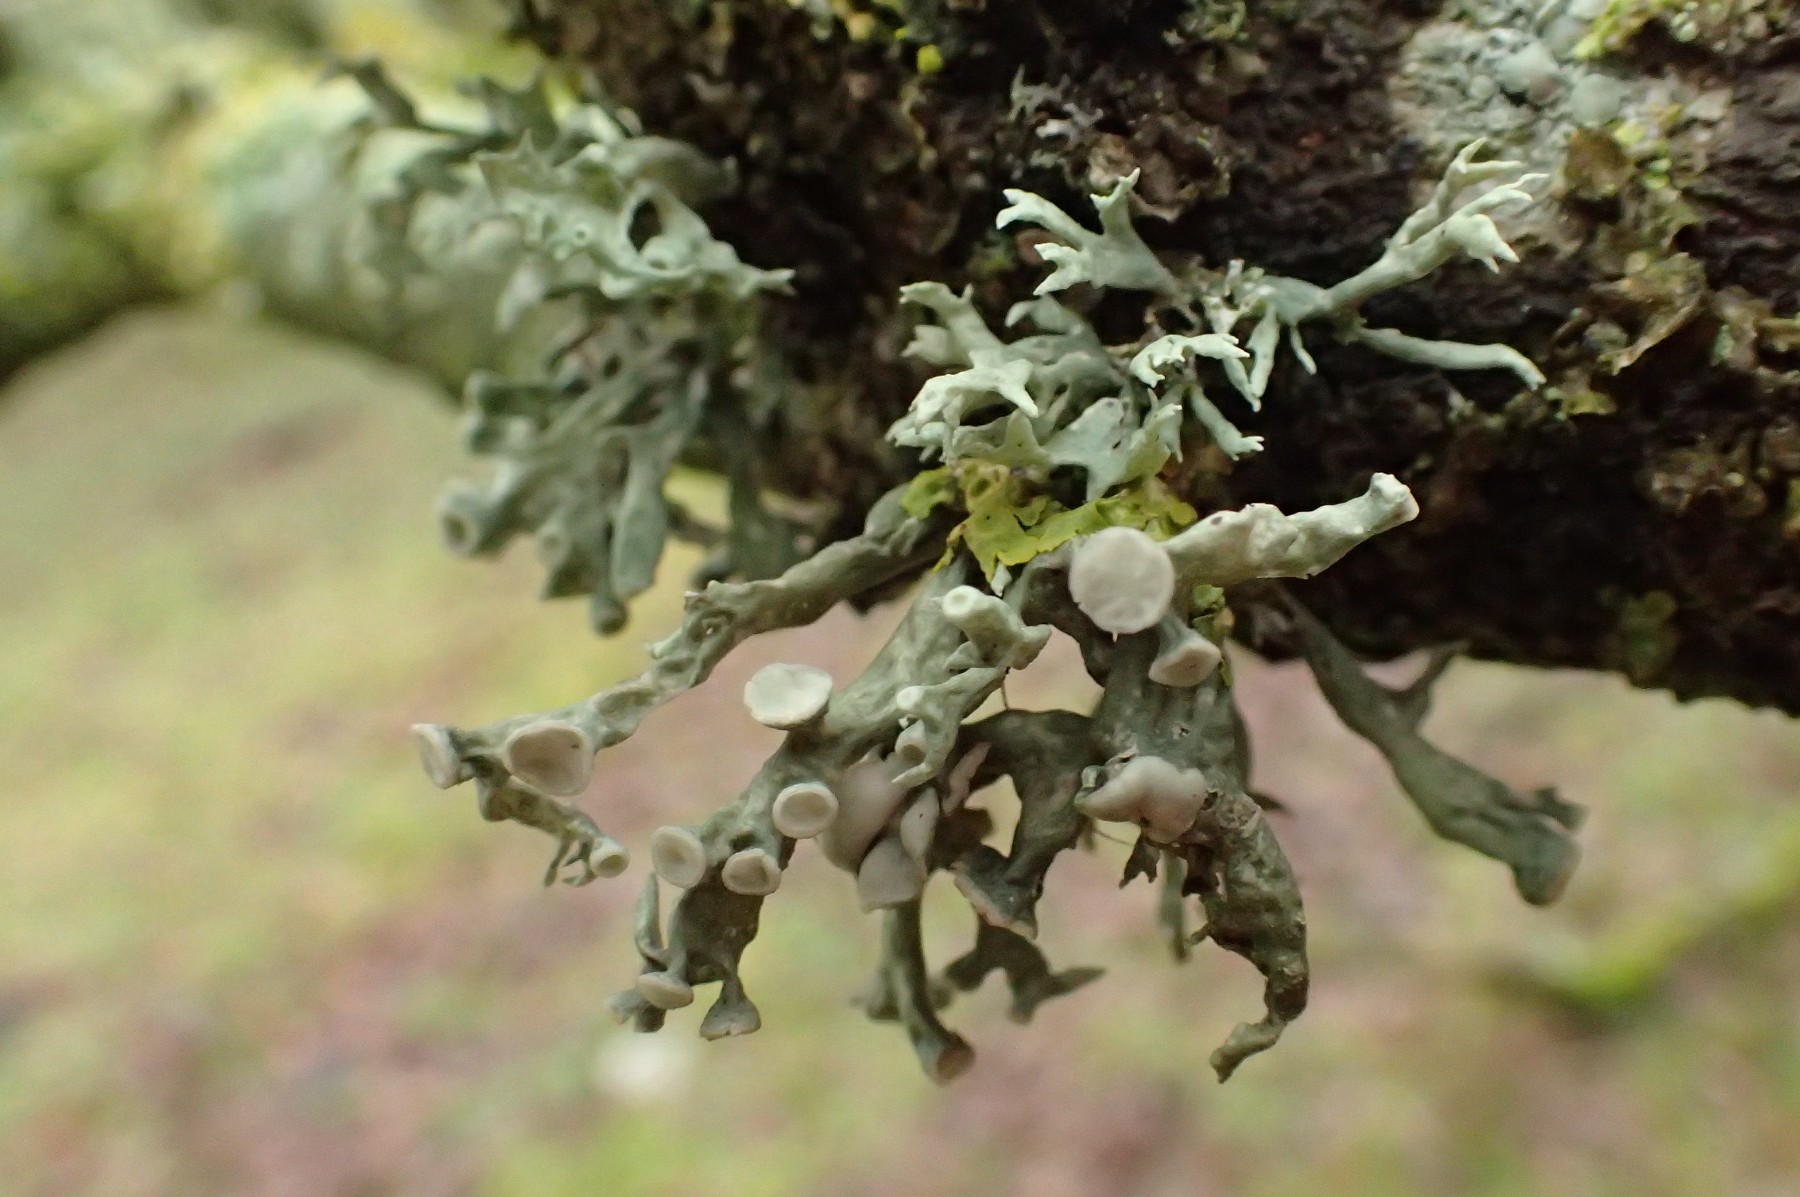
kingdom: Fungi
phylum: Ascomycota
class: Lecanoromycetes
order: Lecanorales
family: Ramalinaceae
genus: Ramalina
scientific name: Ramalina fastigiata
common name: tue-grenlav
